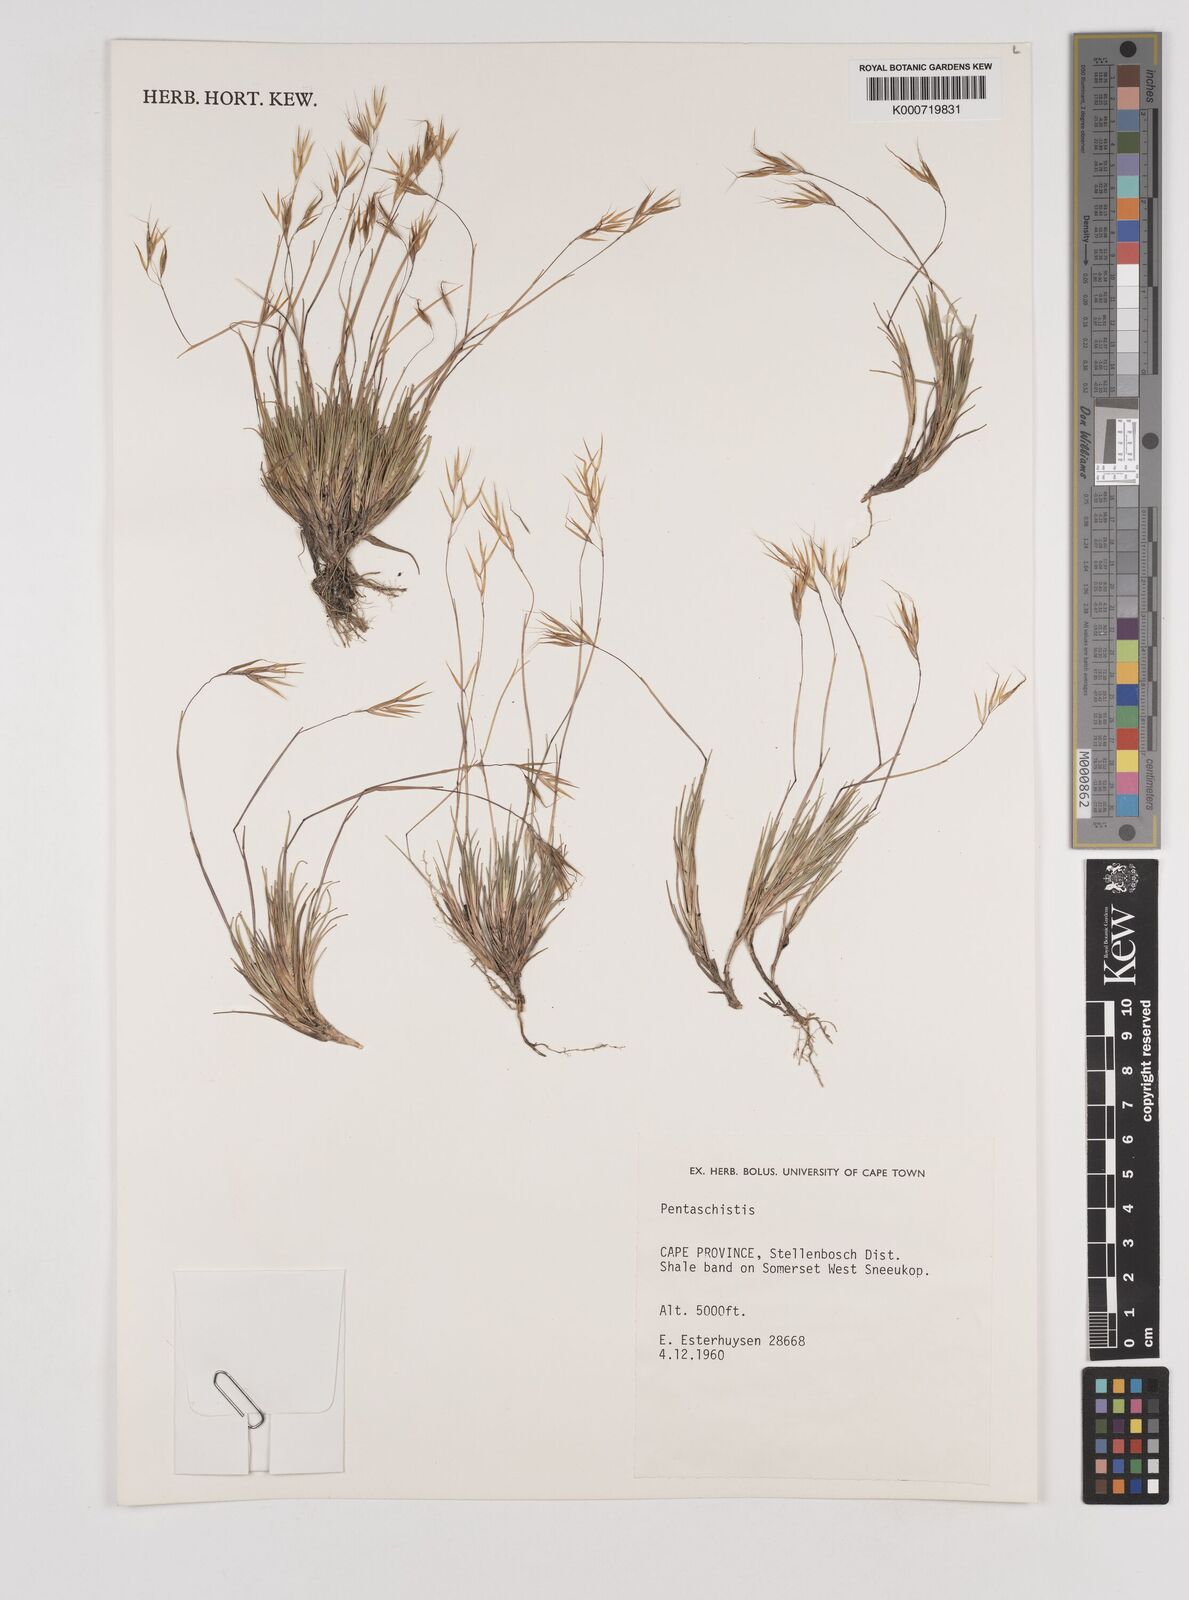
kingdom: Plantae
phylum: Tracheophyta
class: Liliopsida
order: Poales
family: Poaceae
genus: Pentaschistis
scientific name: Pentaschistis
